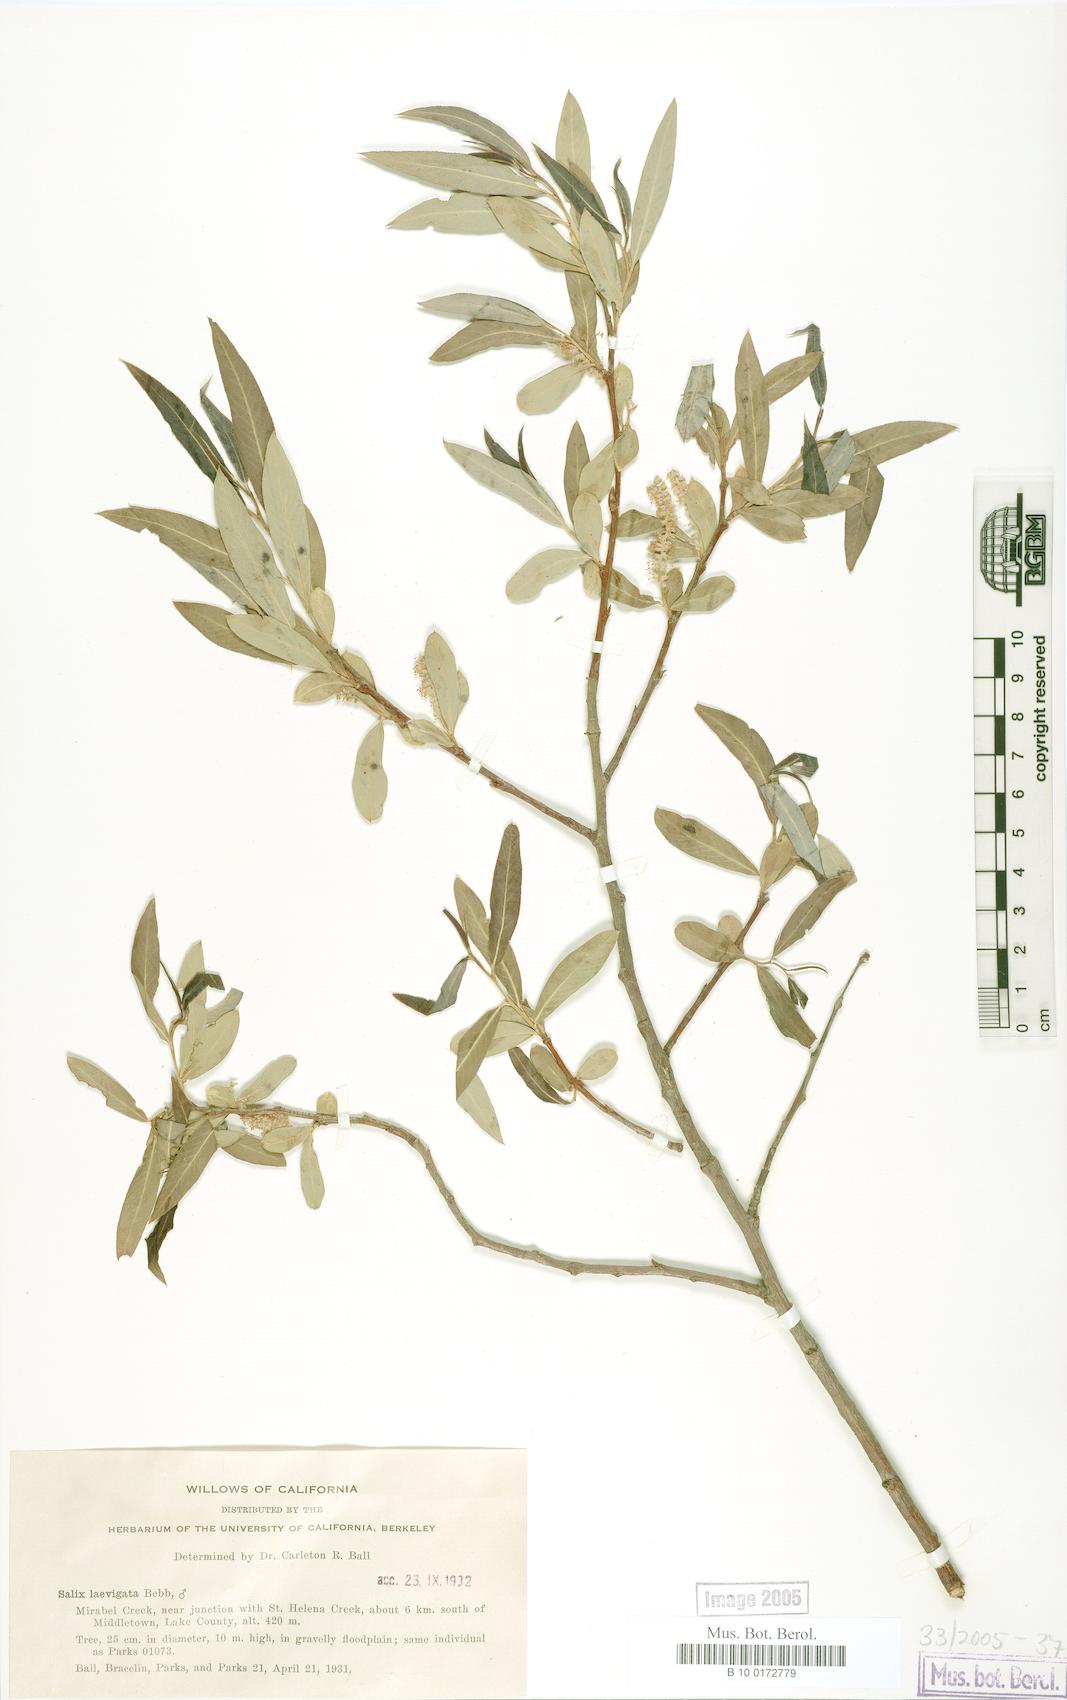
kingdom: Plantae
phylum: Tracheophyta
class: Magnoliopsida
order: Malpighiales
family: Salicaceae
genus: Salix
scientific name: Salix laevigata
